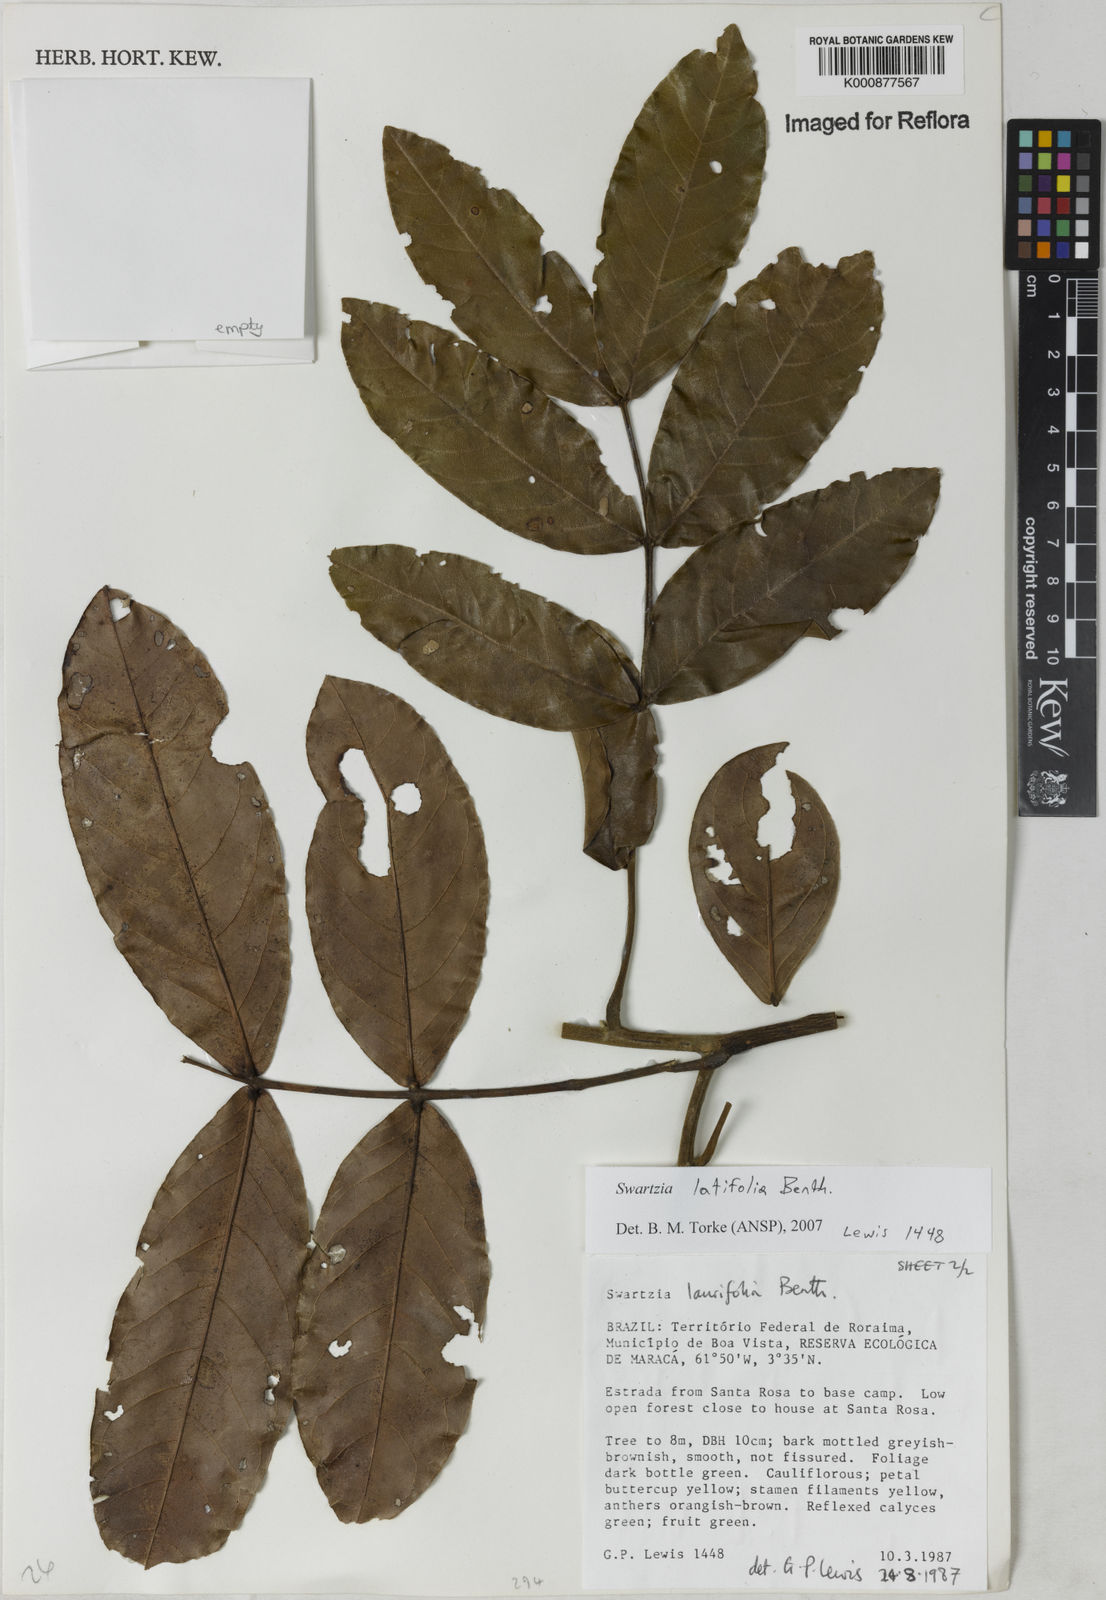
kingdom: Plantae
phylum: Tracheophyta
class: Magnoliopsida
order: Fabales
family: Fabaceae
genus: Swartzia
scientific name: Swartzia latifolia
